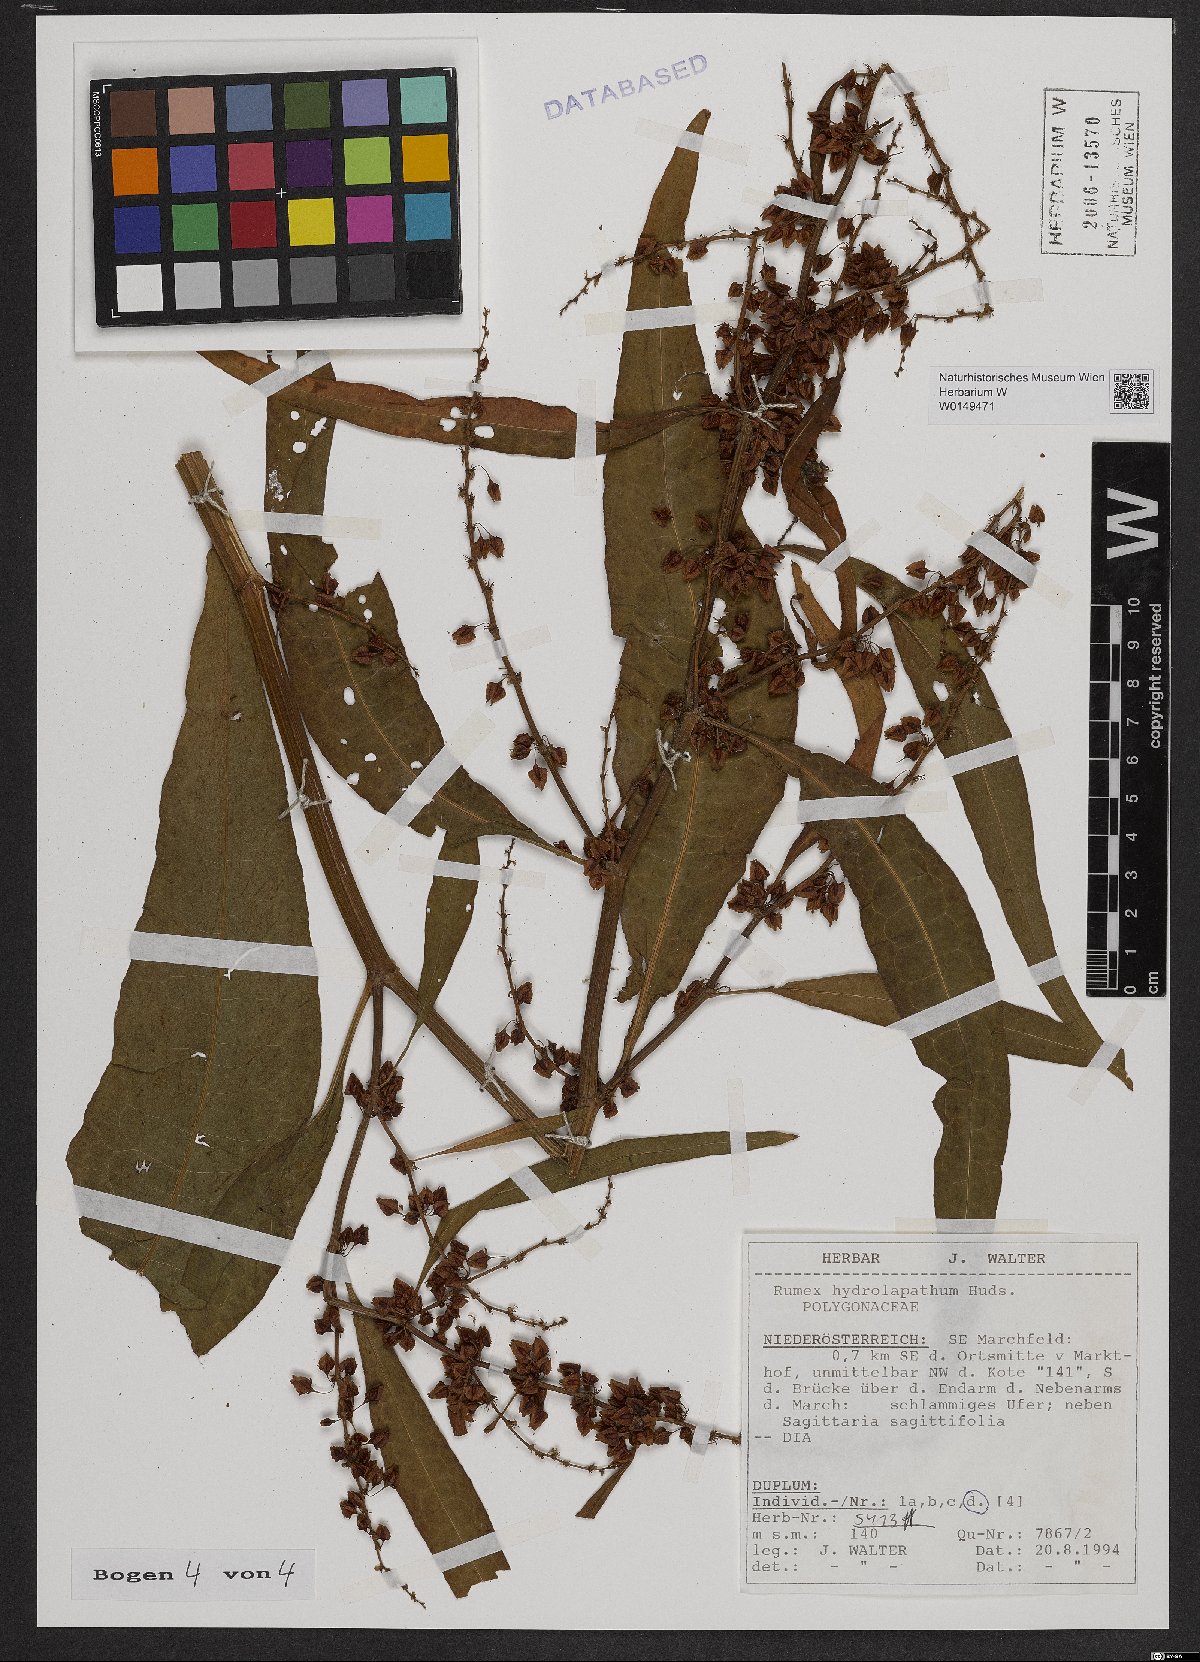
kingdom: Plantae
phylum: Tracheophyta
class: Magnoliopsida
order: Caryophyllales
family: Polygonaceae
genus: Rumex
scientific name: Rumex hydrolapathum
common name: Water dock
